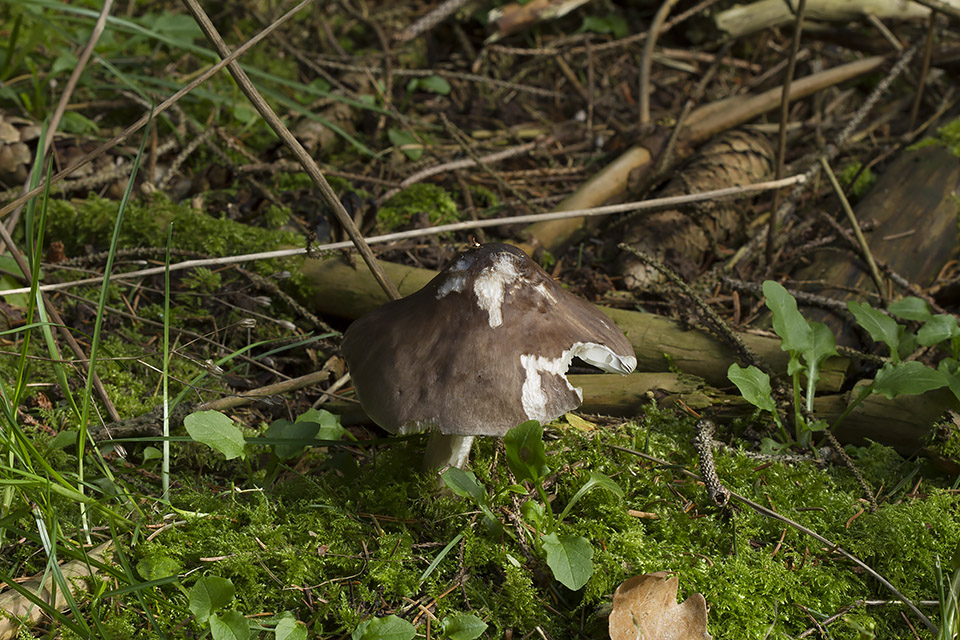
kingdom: Fungi
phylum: Basidiomycota
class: Agaricomycetes
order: Agaricales
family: Pluteaceae
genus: Pluteus
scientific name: Pluteus primus
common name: tidlig skærmhat
